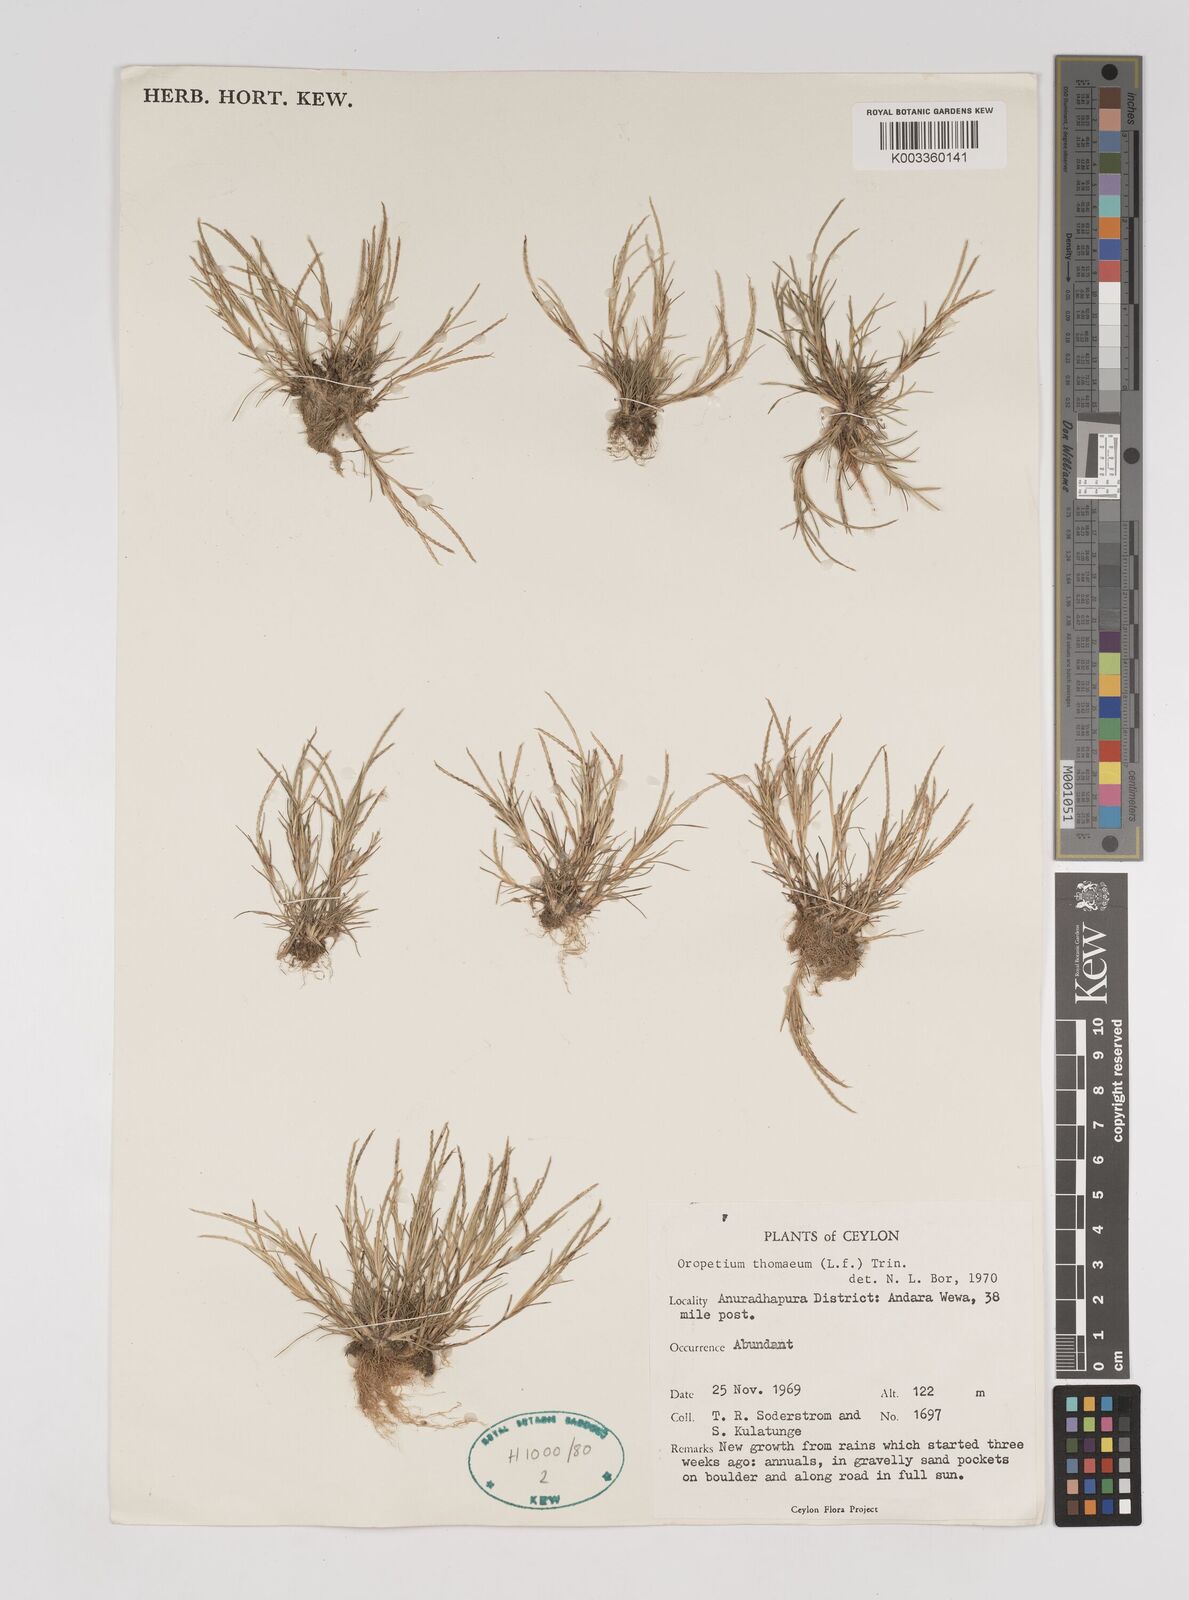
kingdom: Plantae
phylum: Tracheophyta
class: Liliopsida
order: Poales
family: Poaceae
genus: Oropetium
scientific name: Oropetium thomaeum
